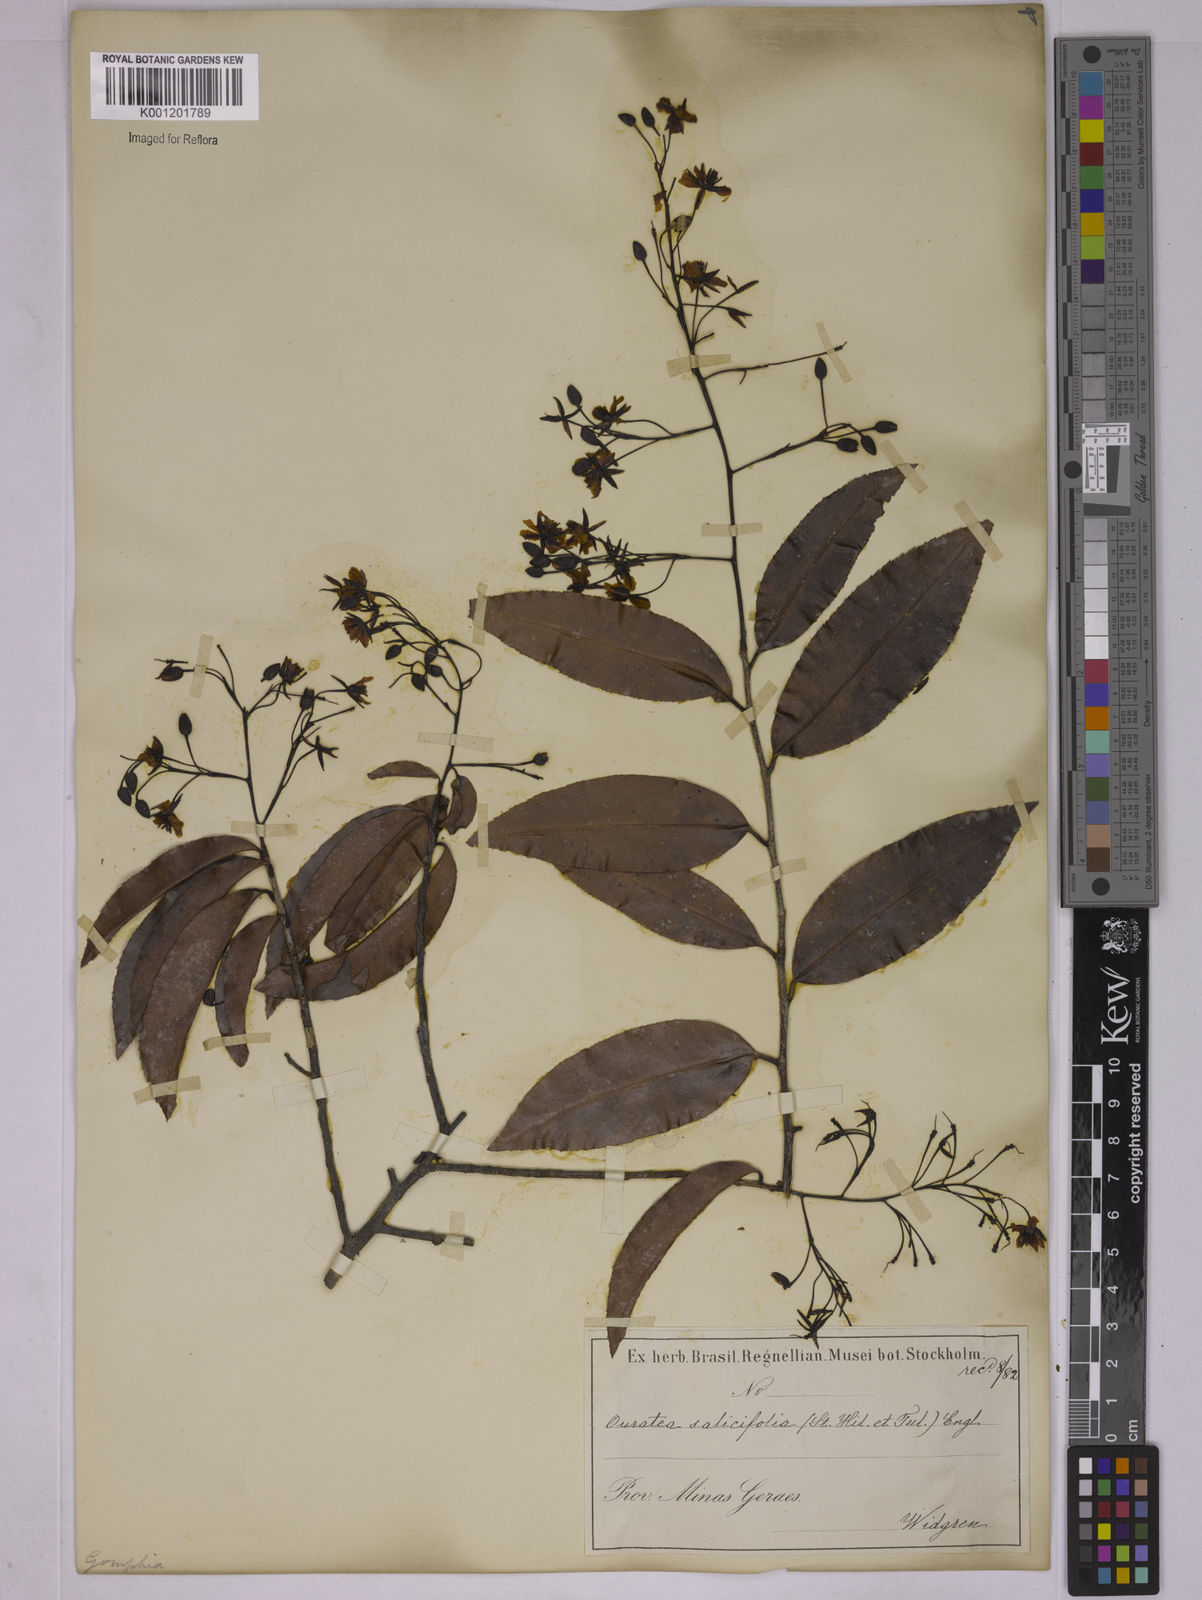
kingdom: Plantae
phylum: Tracheophyta
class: Magnoliopsida
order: Malpighiales
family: Ochnaceae
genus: Ouratea
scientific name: Ouratea salicifolia
